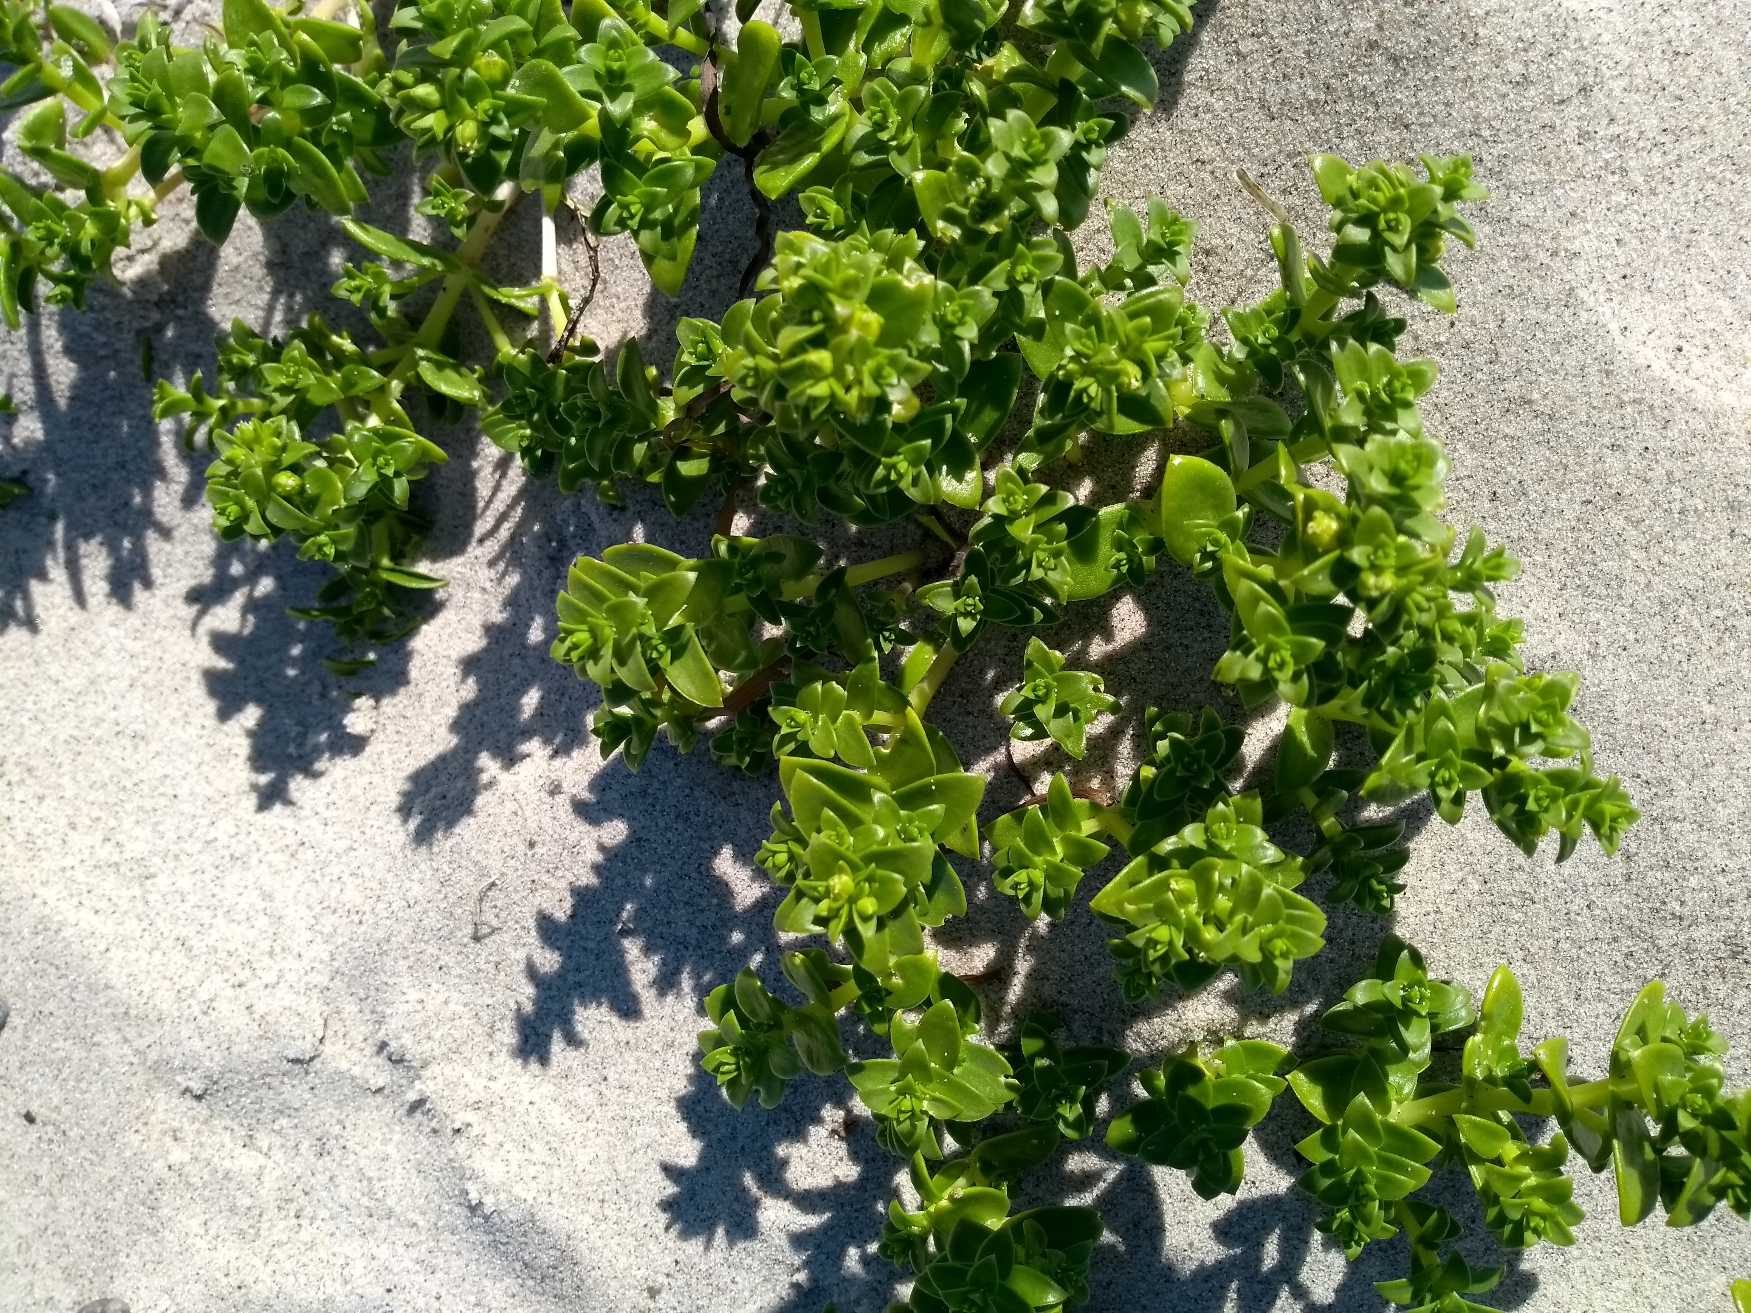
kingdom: Plantae
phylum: Tracheophyta
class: Magnoliopsida
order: Caryophyllales
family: Caryophyllaceae
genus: Honckenya
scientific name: Honckenya peploides
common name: Strandarve
